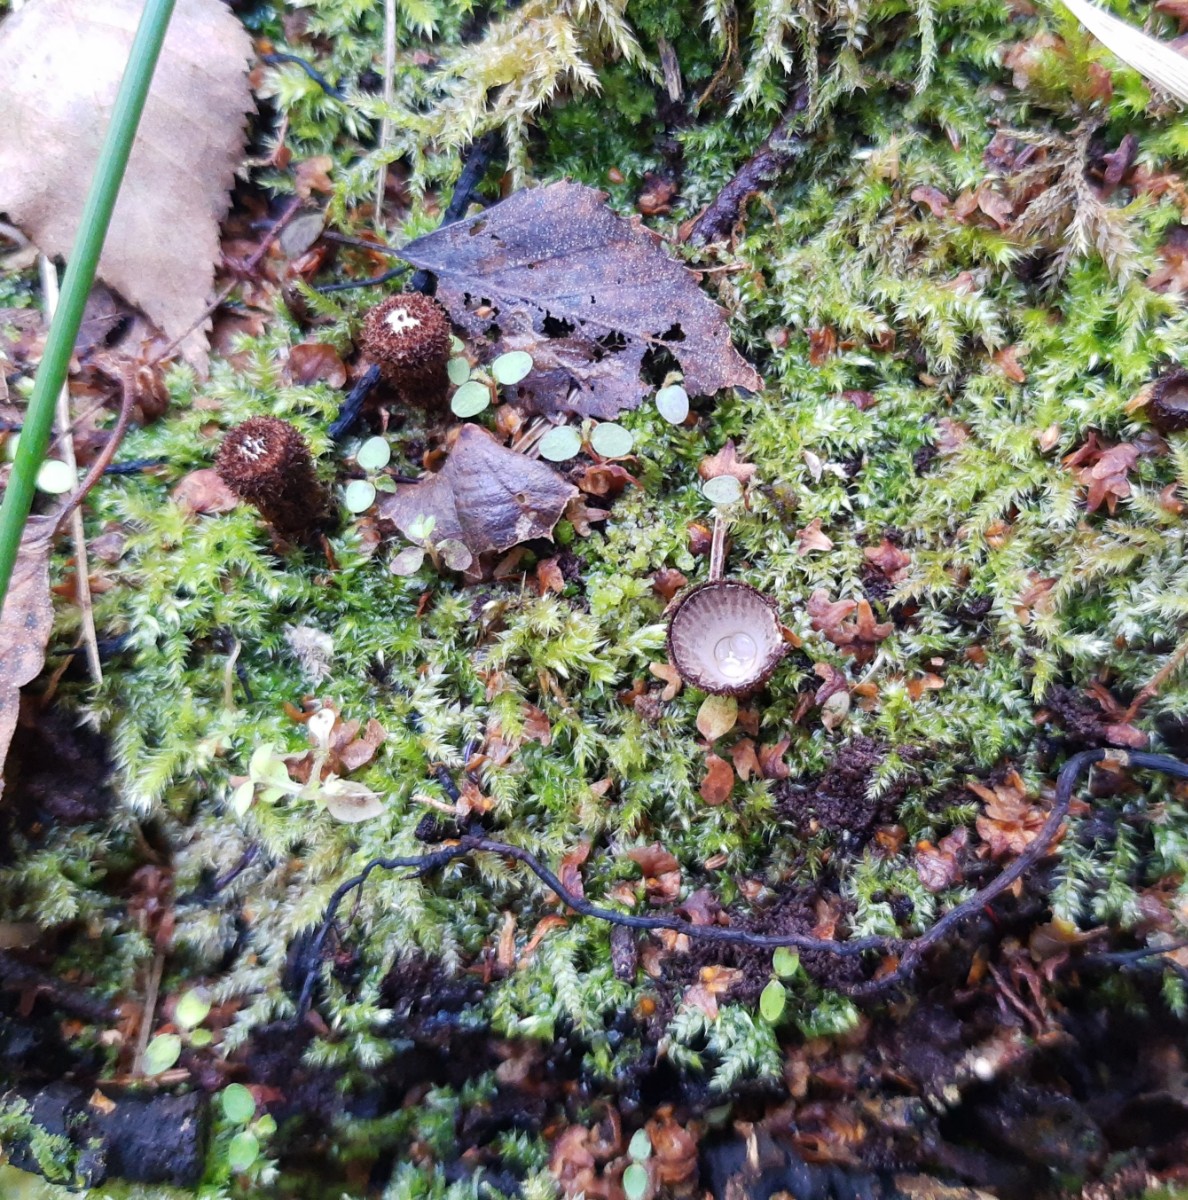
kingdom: Fungi
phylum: Basidiomycota
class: Agaricomycetes
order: Agaricales
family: Agaricaceae
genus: Cyathus
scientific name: Cyathus striatus
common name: stribet redesvamp
